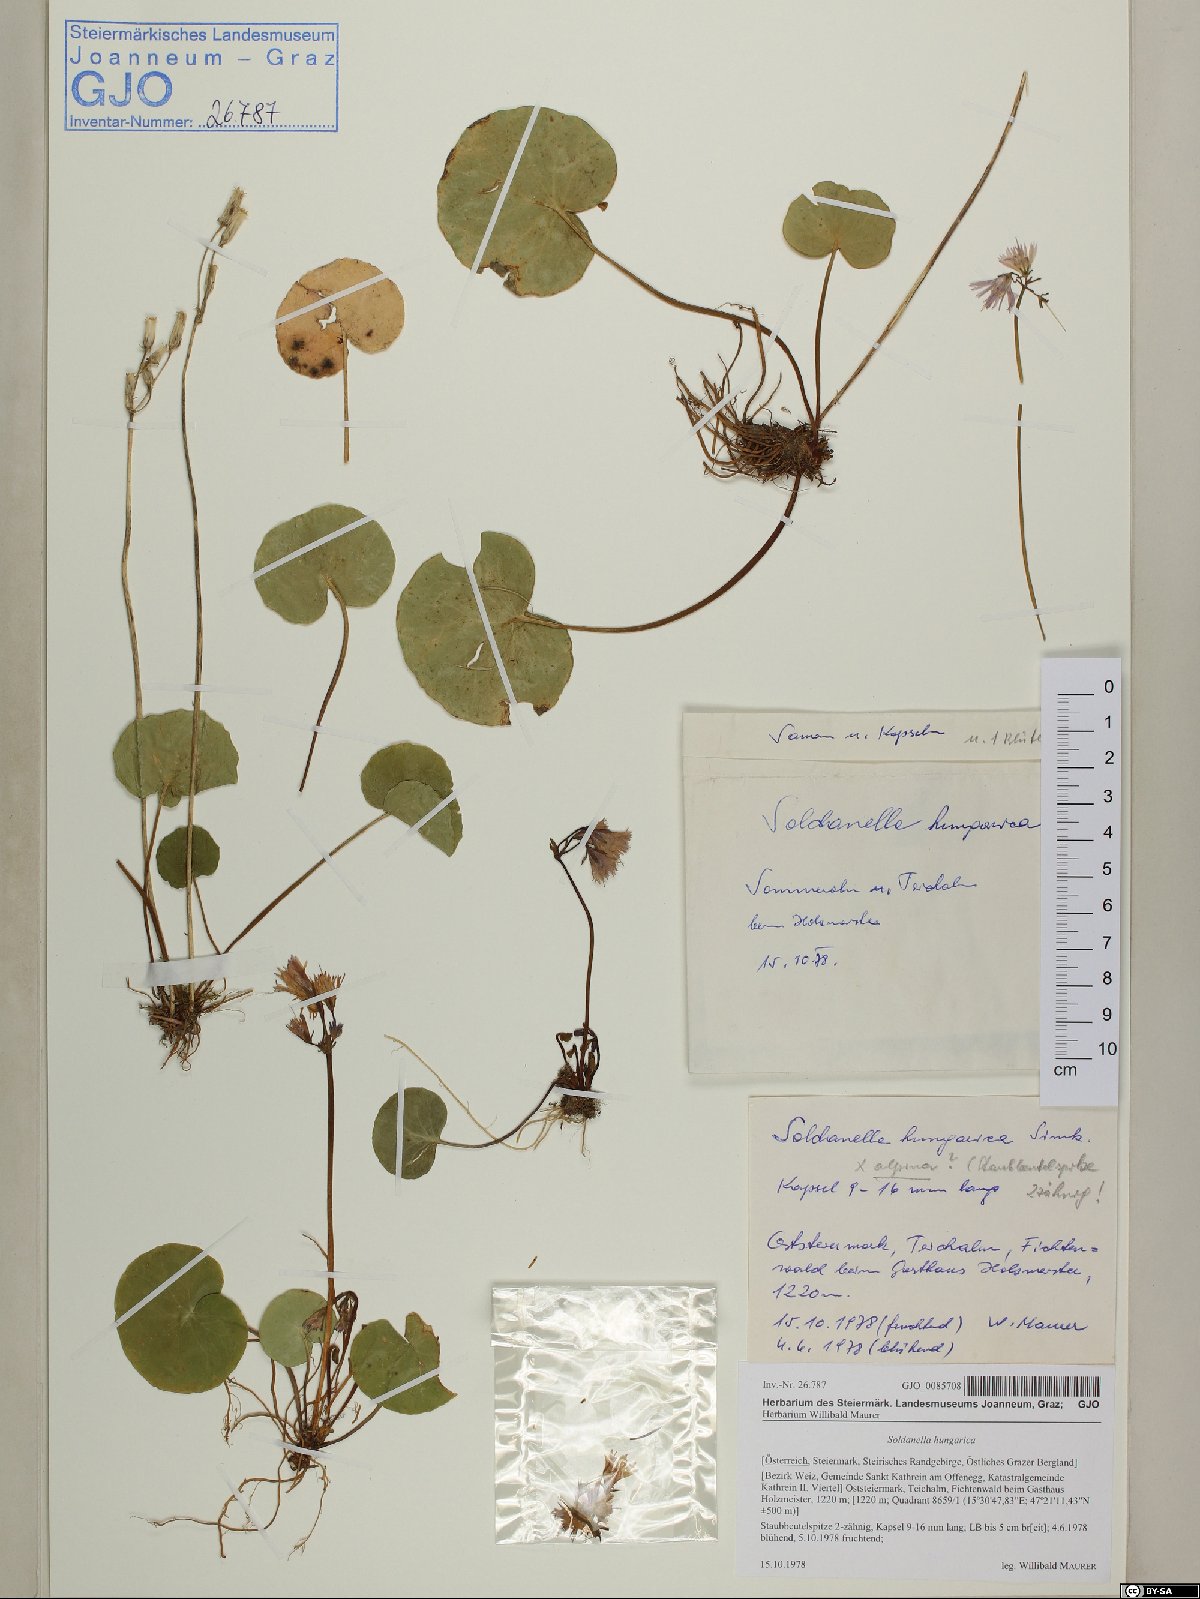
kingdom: Plantae
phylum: Tracheophyta
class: Magnoliopsida
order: Ericales
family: Primulaceae
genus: Soldanella
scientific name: Soldanella hungarica
